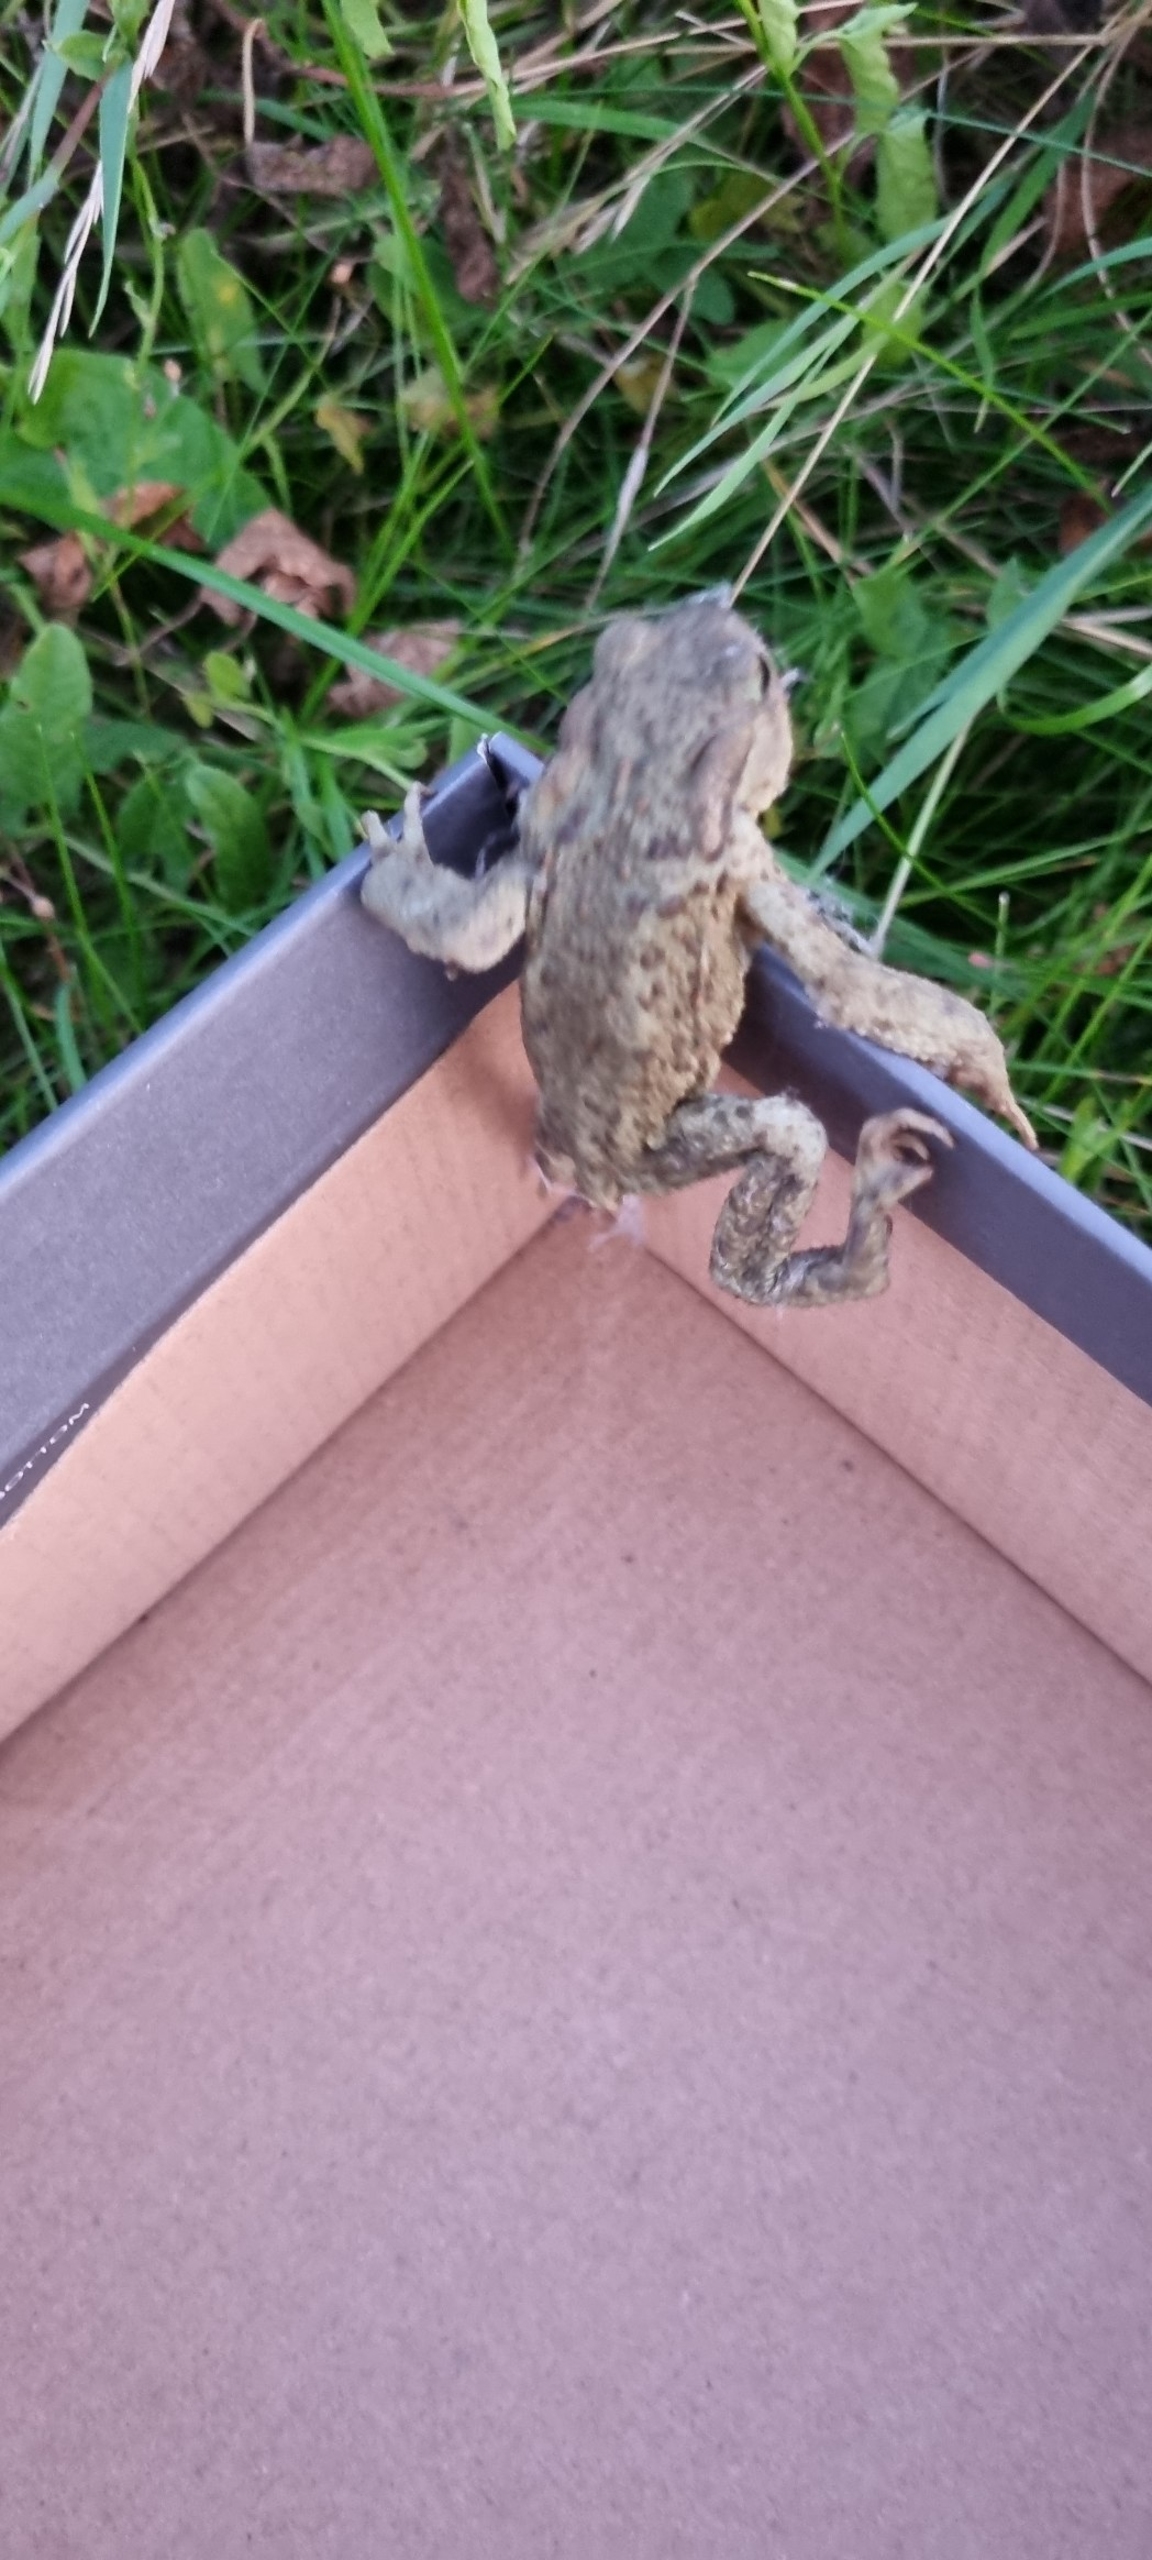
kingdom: Animalia
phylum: Chordata
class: Amphibia
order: Anura
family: Bufonidae
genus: Bufo
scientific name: Bufo bufo
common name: Skrubtudse
